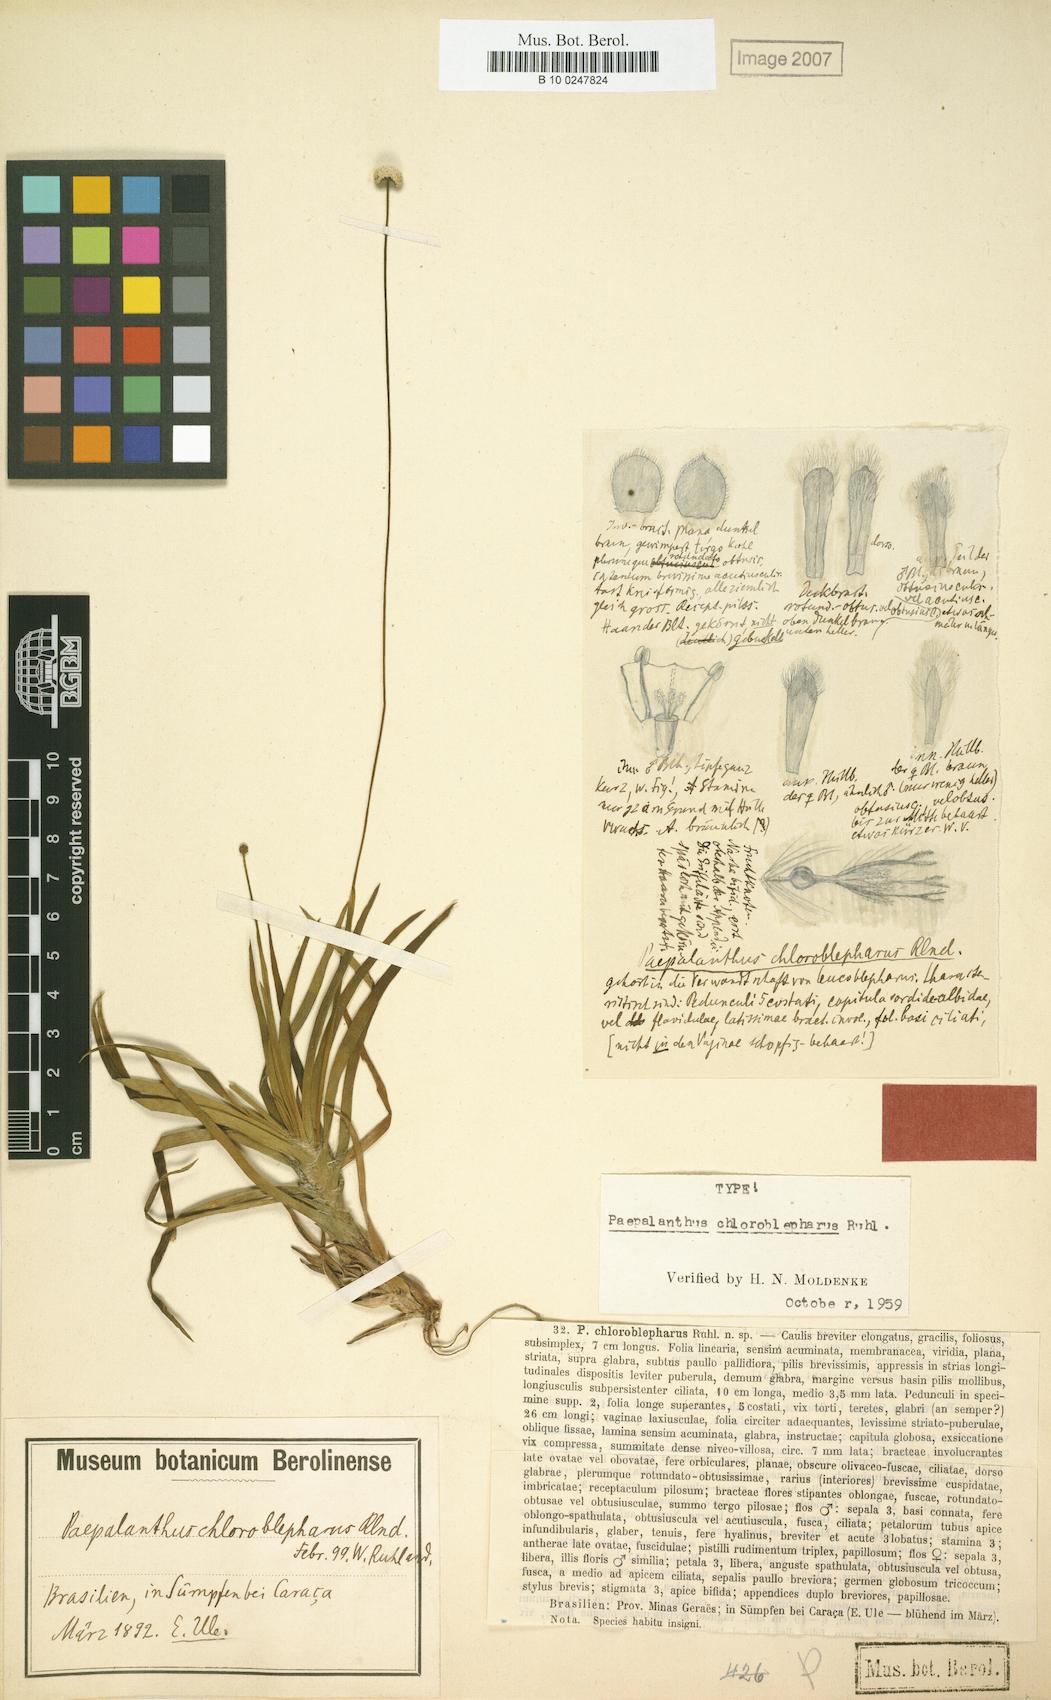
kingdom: Plantae
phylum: Tracheophyta
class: Liliopsida
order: Poales
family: Eriocaulaceae
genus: Paepalanthus
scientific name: Paepalanthus chloroblepharus
